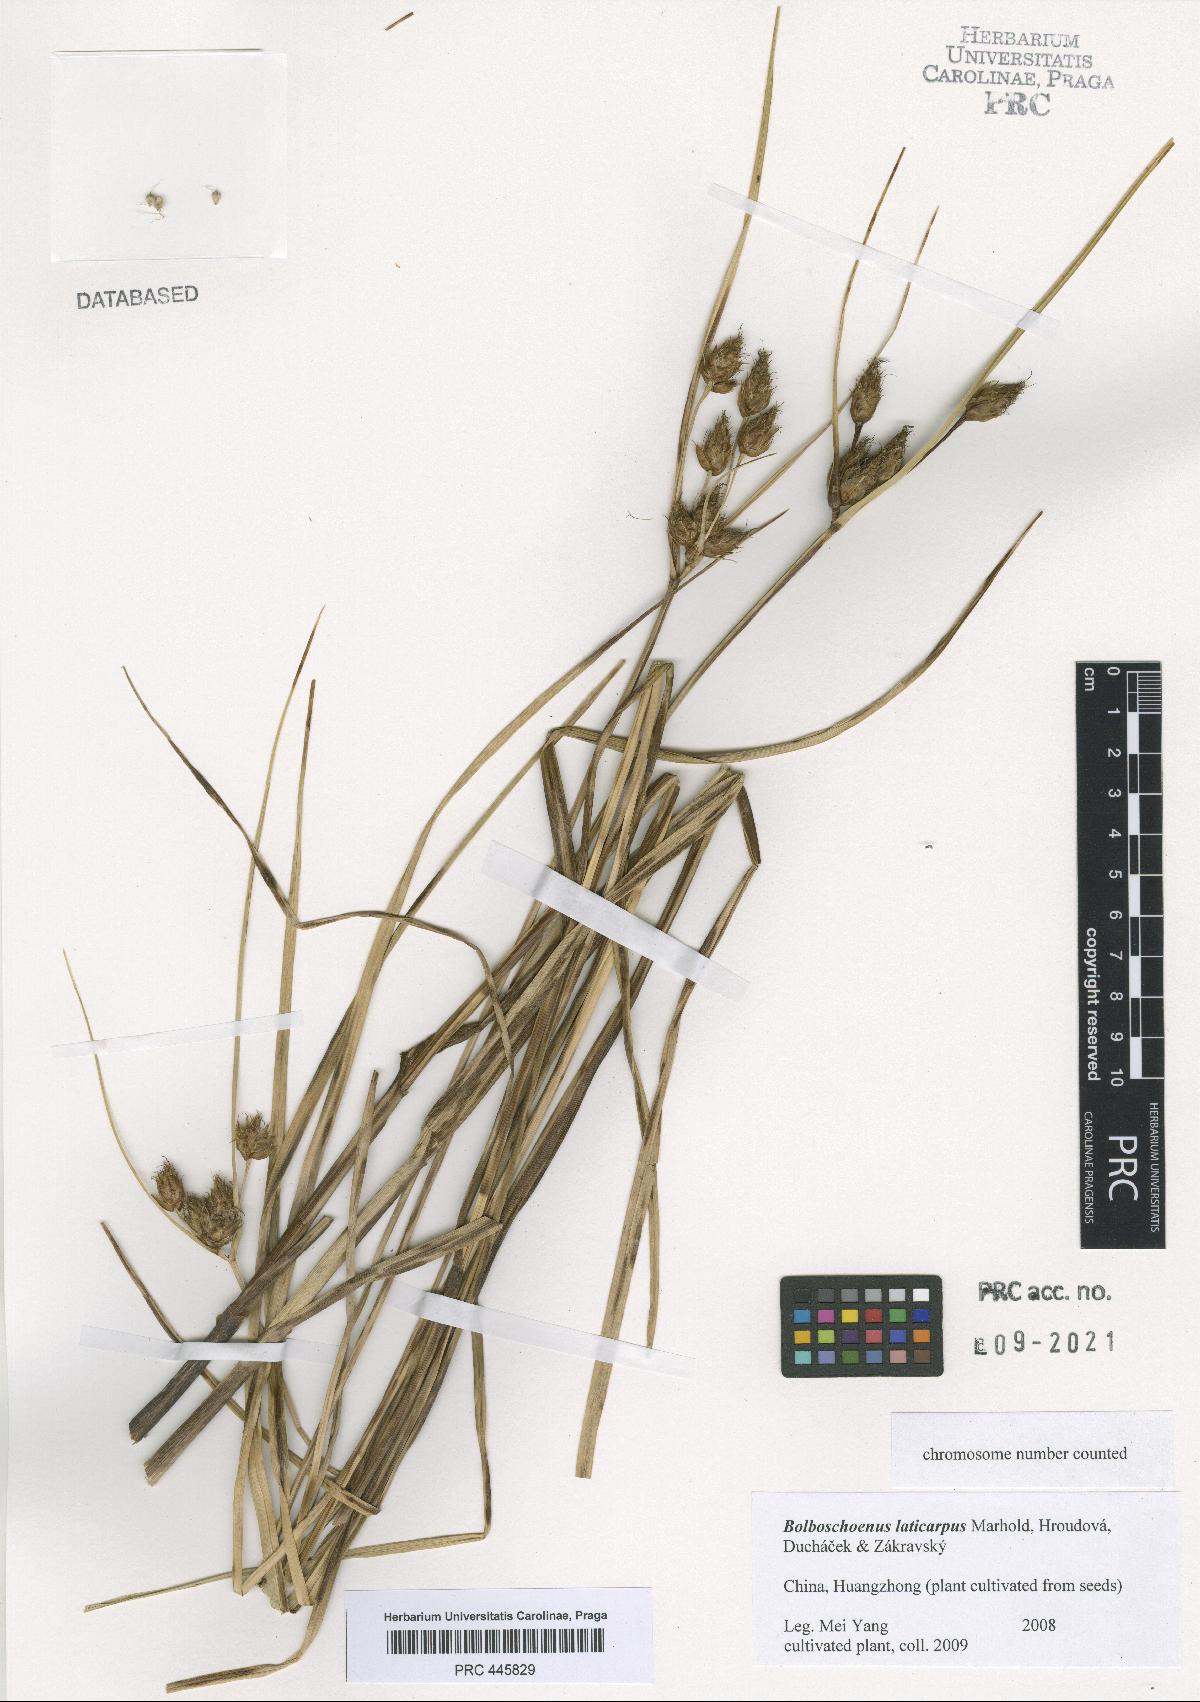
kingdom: Plantae
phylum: Tracheophyta
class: Liliopsida
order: Poales
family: Cyperaceae
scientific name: Cyperaceae
